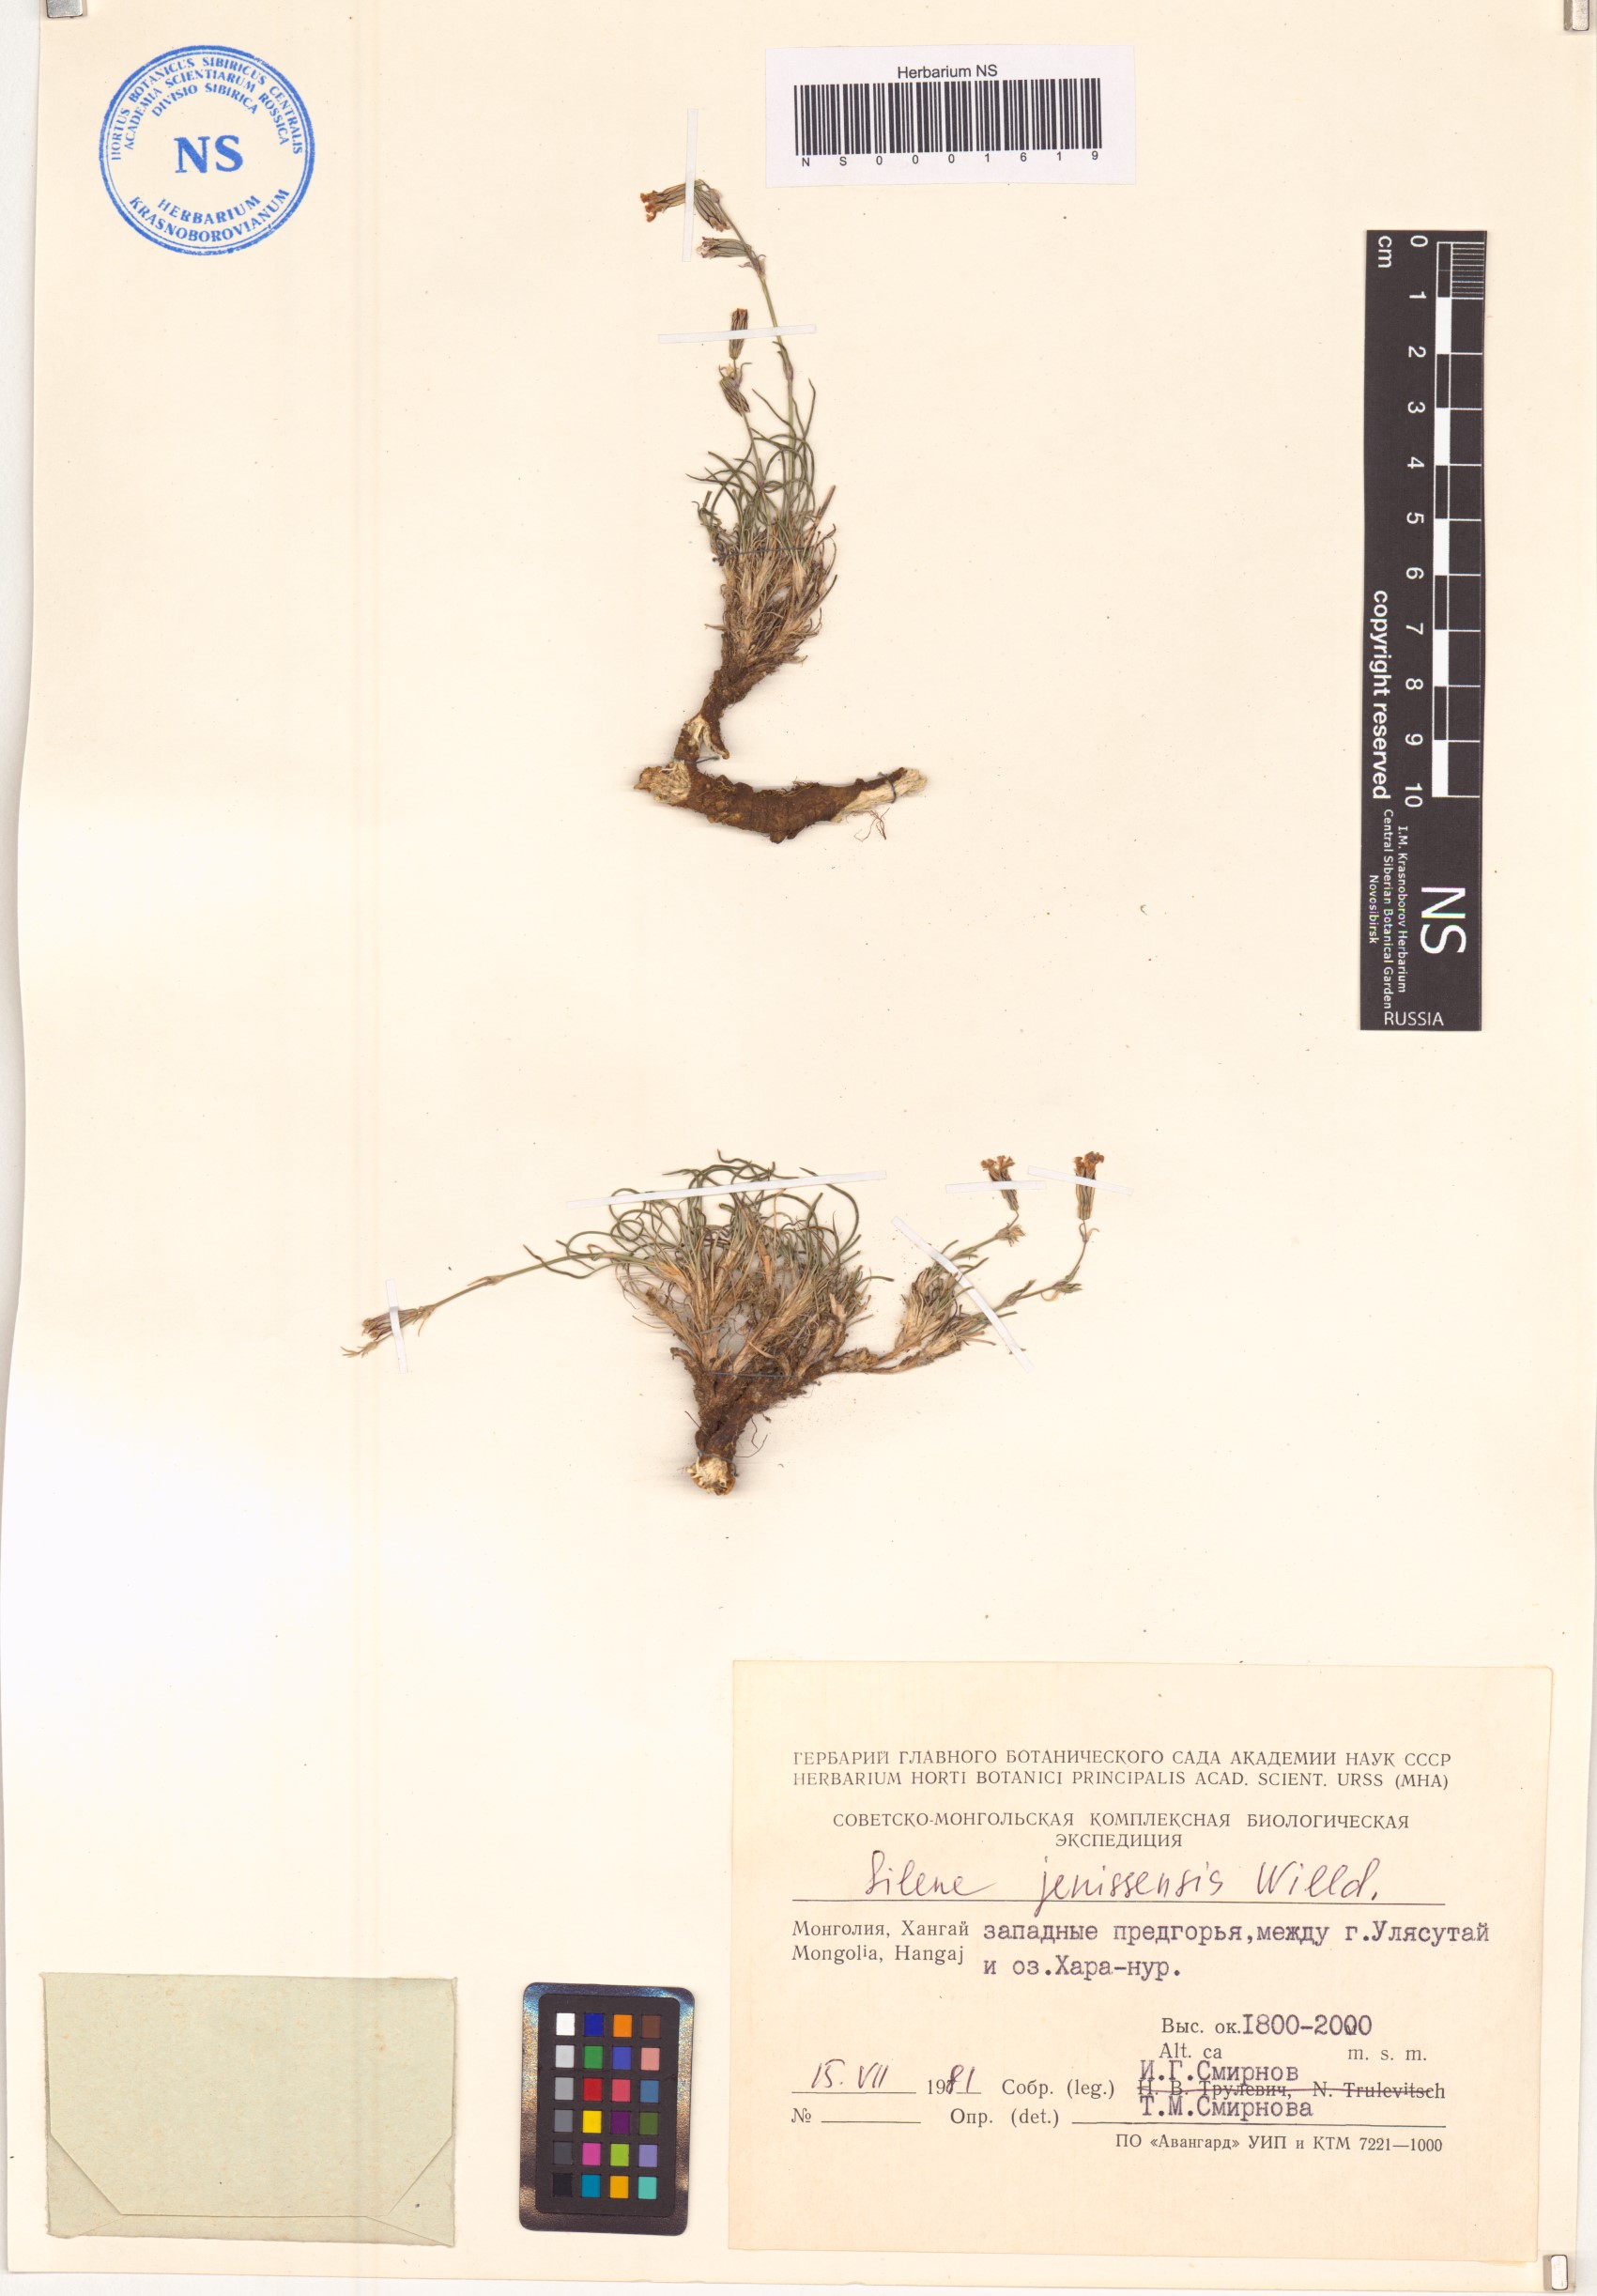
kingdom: Plantae
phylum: Tracheophyta
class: Magnoliopsida
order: Caryophyllales
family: Caryophyllaceae
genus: Silene
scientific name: Silene jeniseensis
